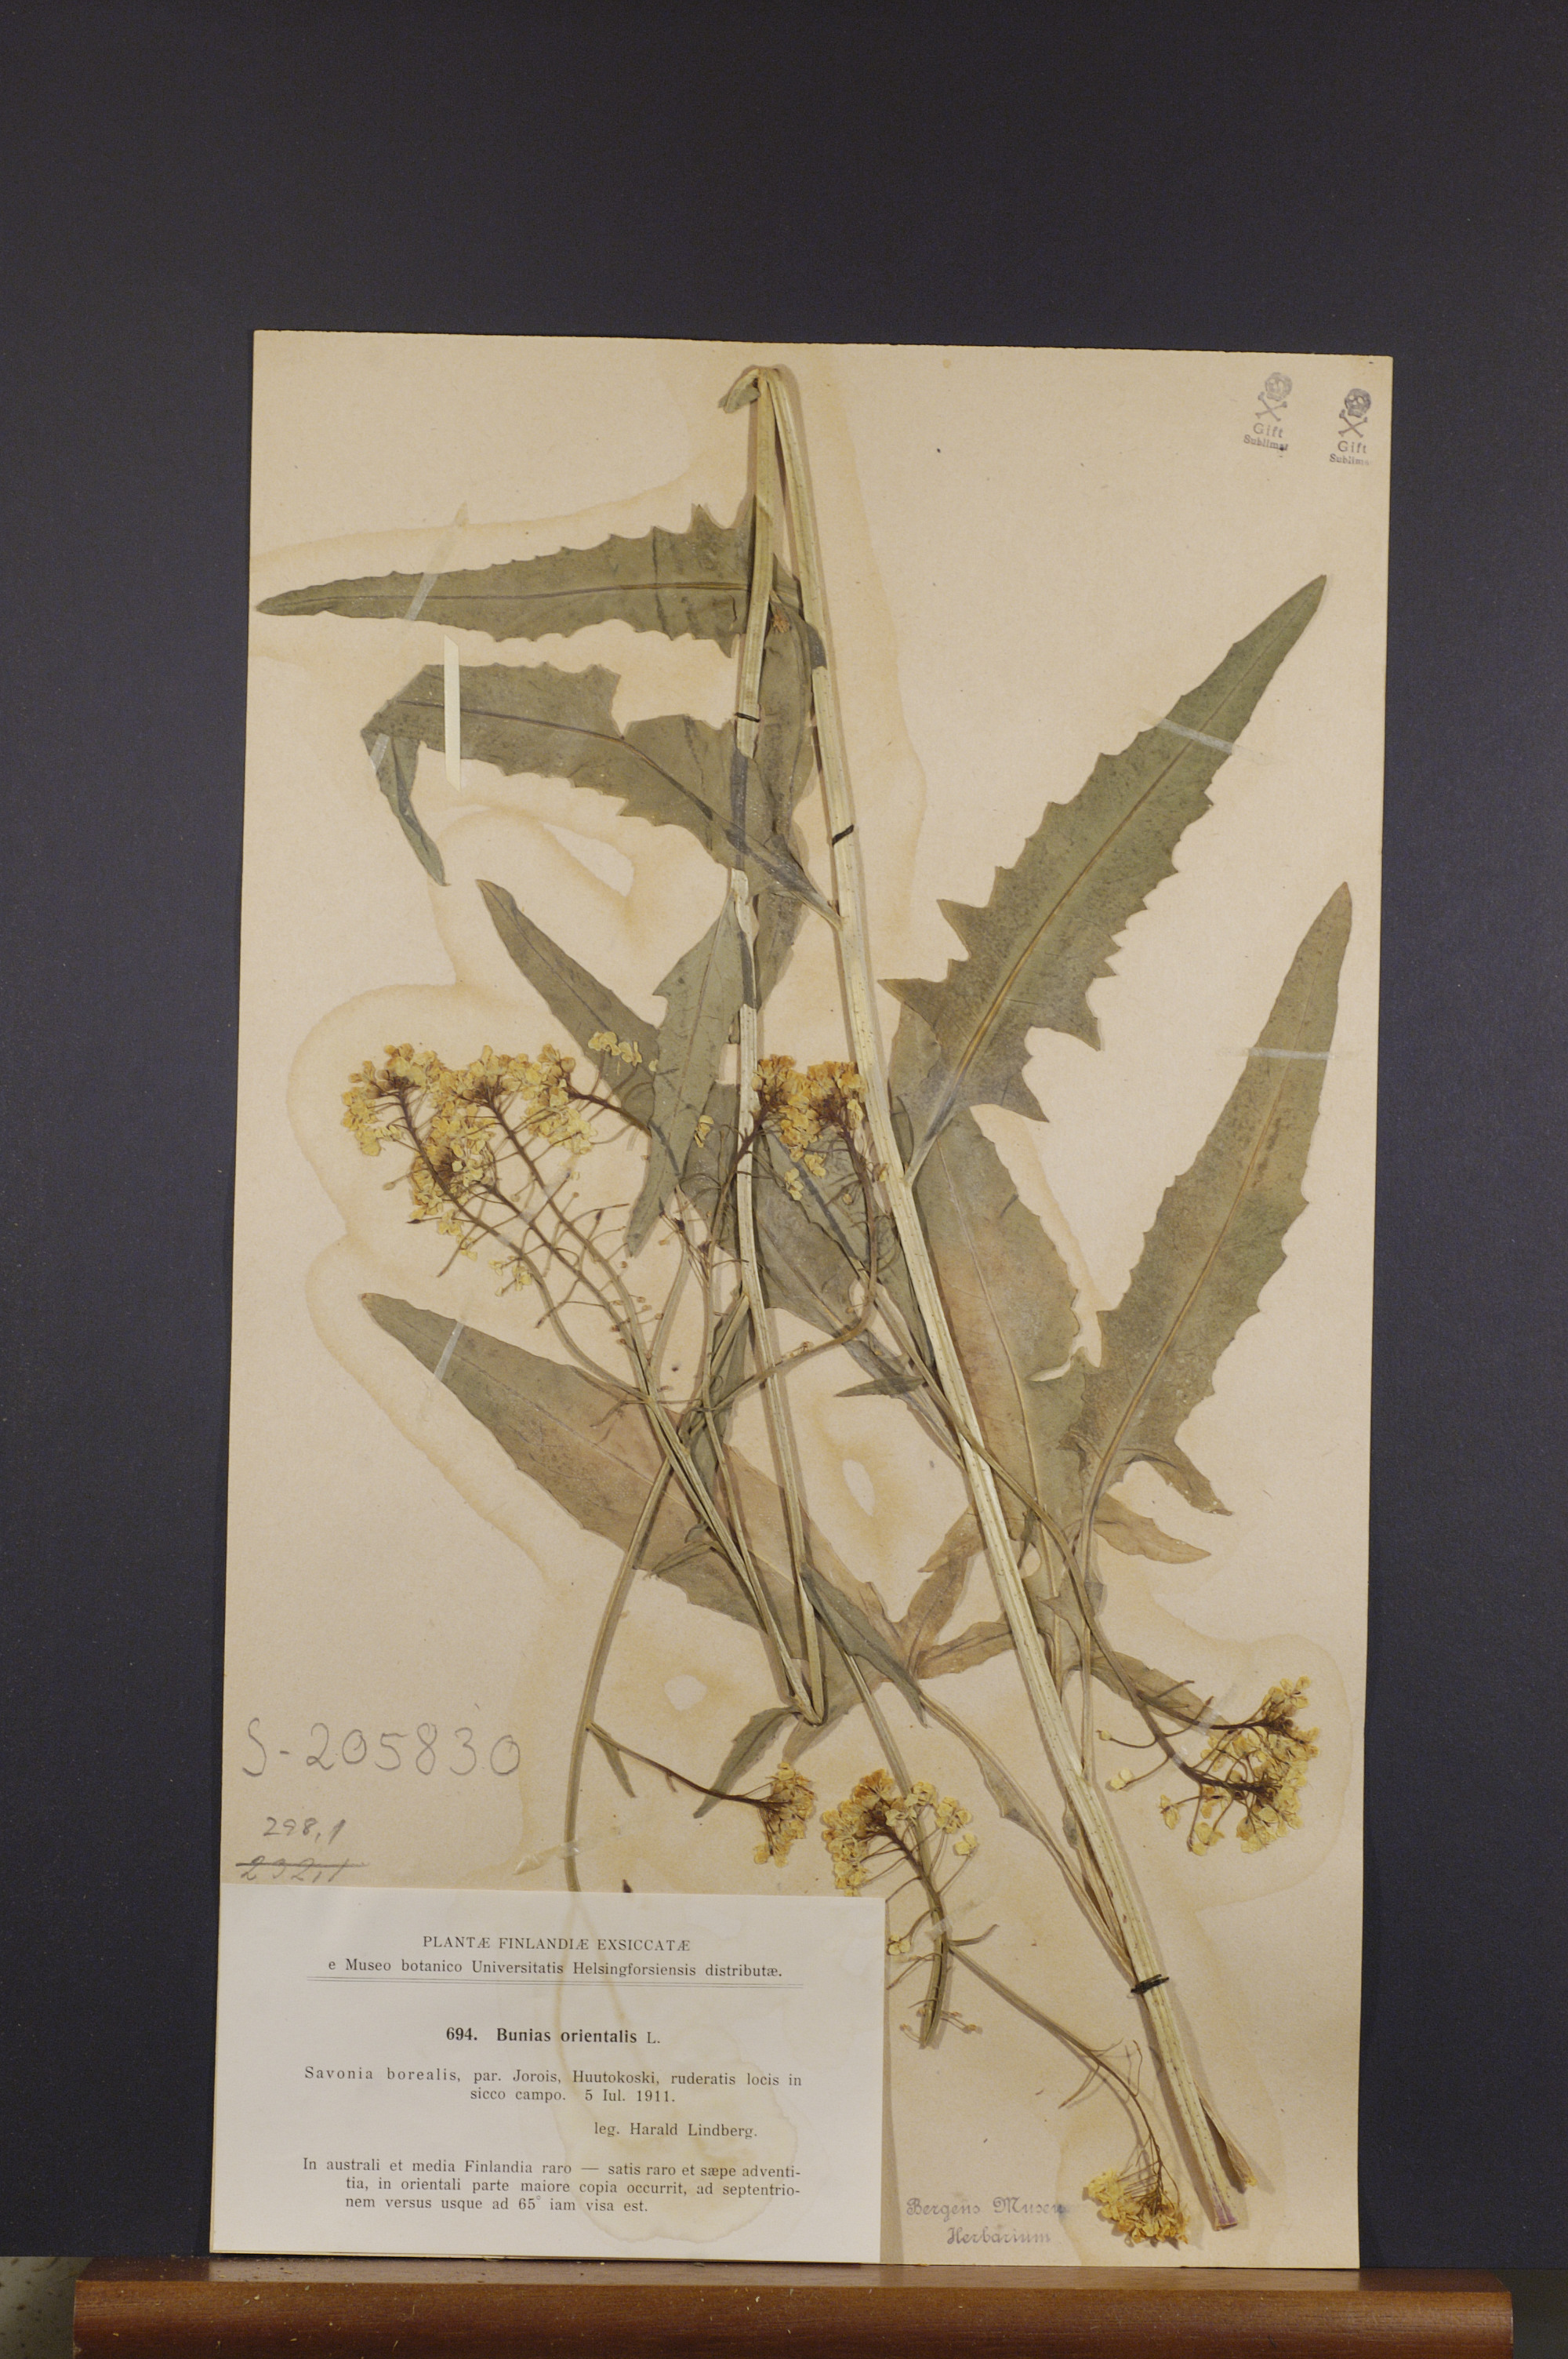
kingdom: Plantae
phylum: Tracheophyta
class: Magnoliopsida
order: Brassicales
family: Brassicaceae
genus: Bunias
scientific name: Bunias orientalis
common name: Warty-cabbage
